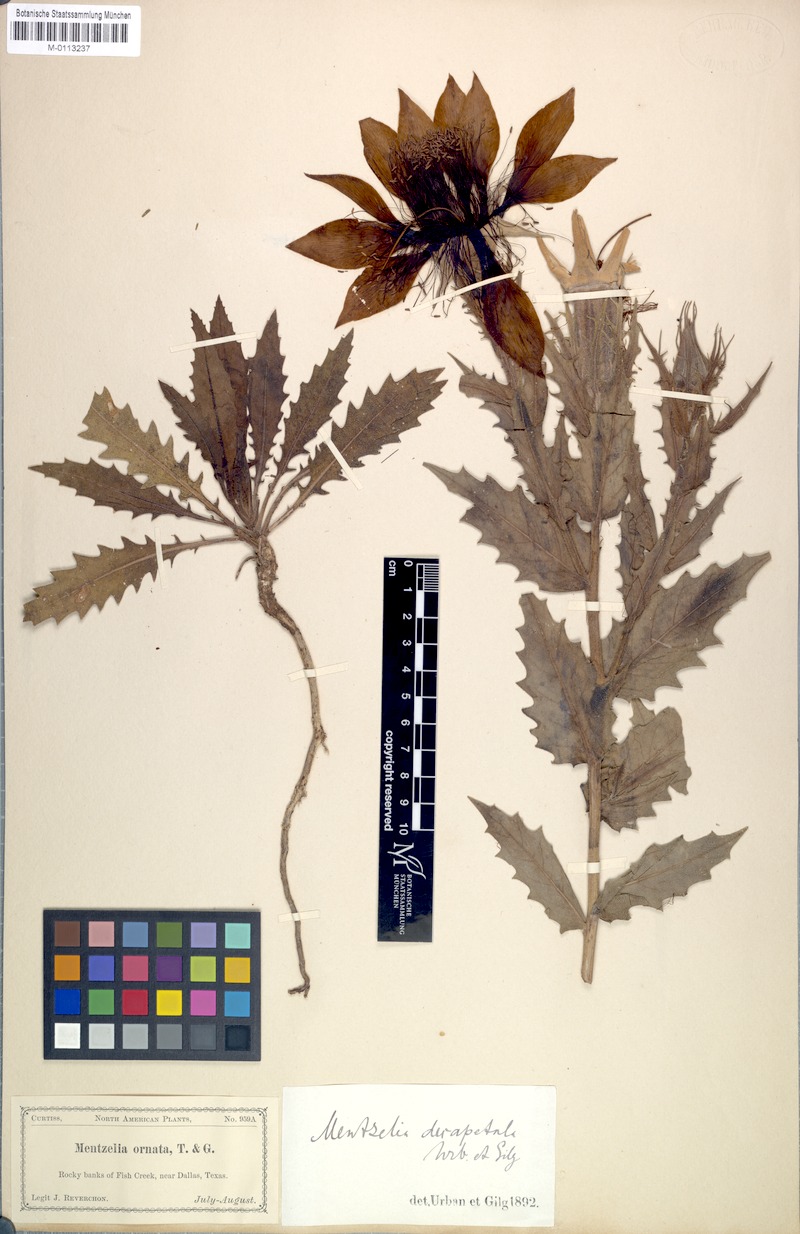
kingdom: Plantae
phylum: Tracheophyta
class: Magnoliopsida
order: Cornales
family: Loasaceae
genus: Mentzelia
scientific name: Mentzelia decapetala
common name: Gumbo-lily
